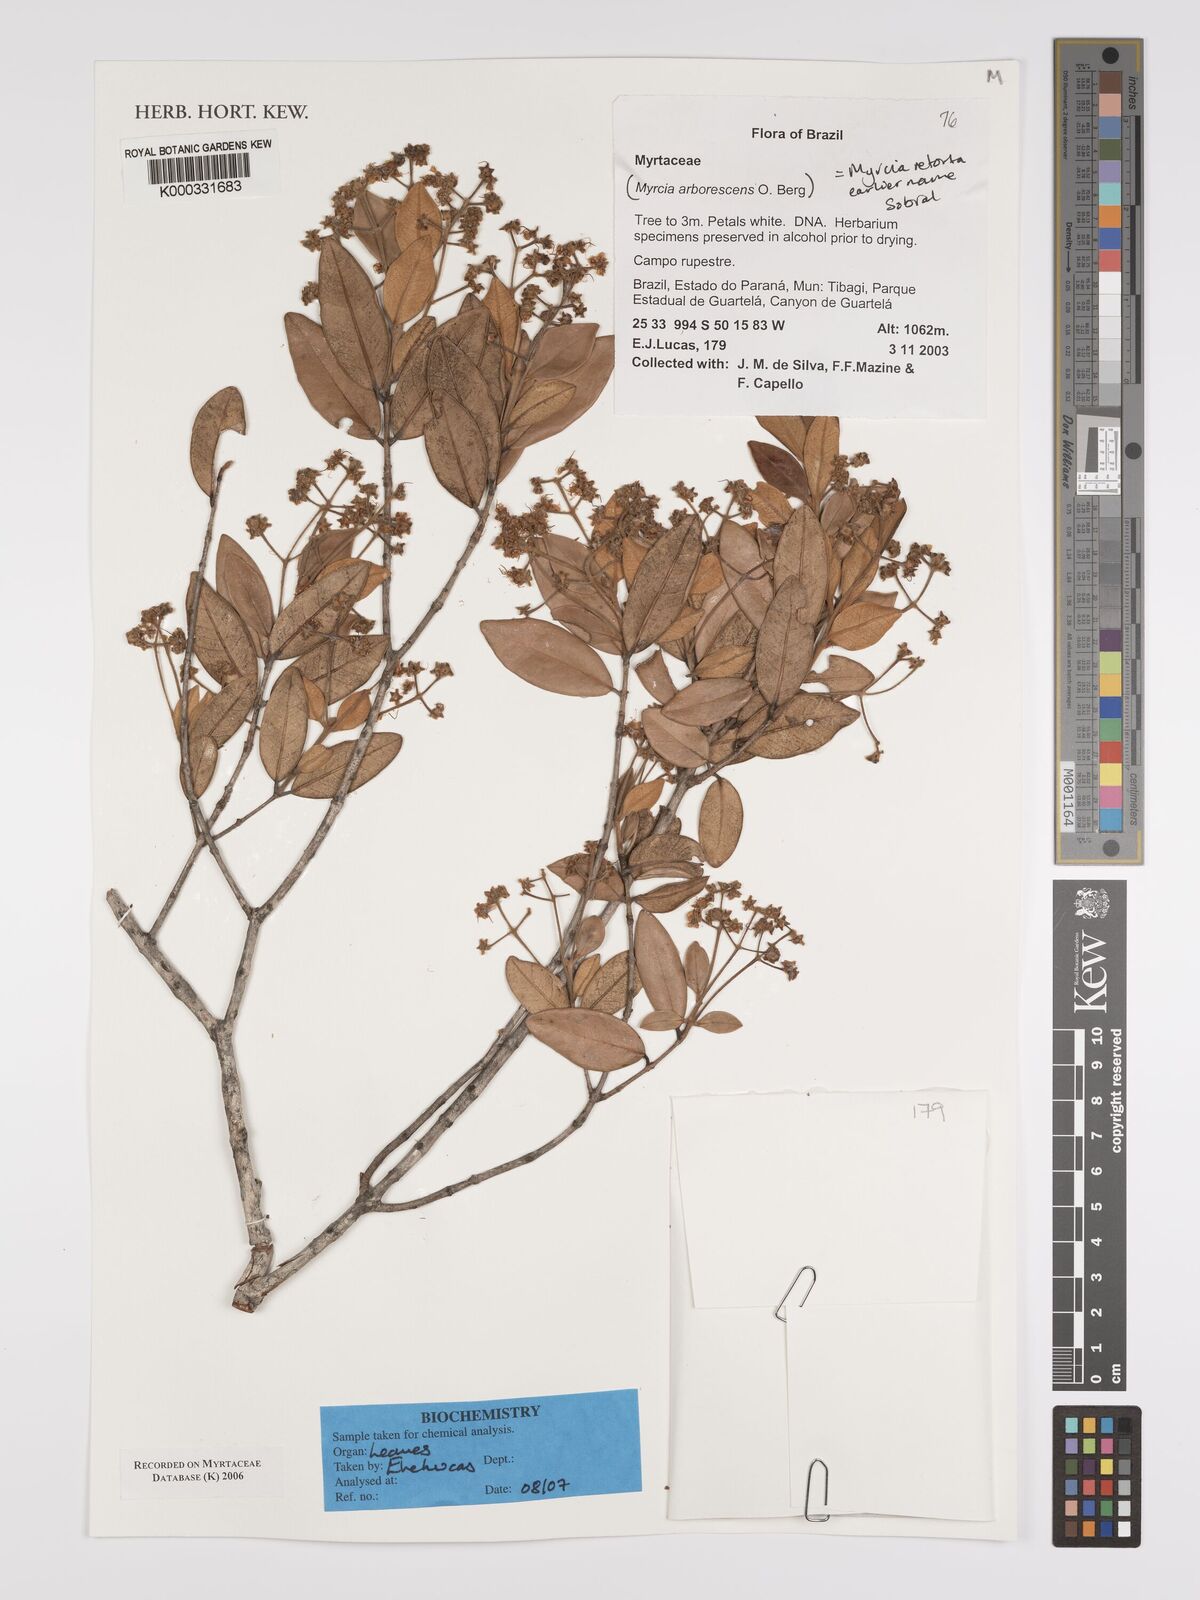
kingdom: Plantae
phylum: Tracheophyta
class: Magnoliopsida
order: Myrtales
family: Myrtaceae
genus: Myrcia
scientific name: Myrcia retorta
